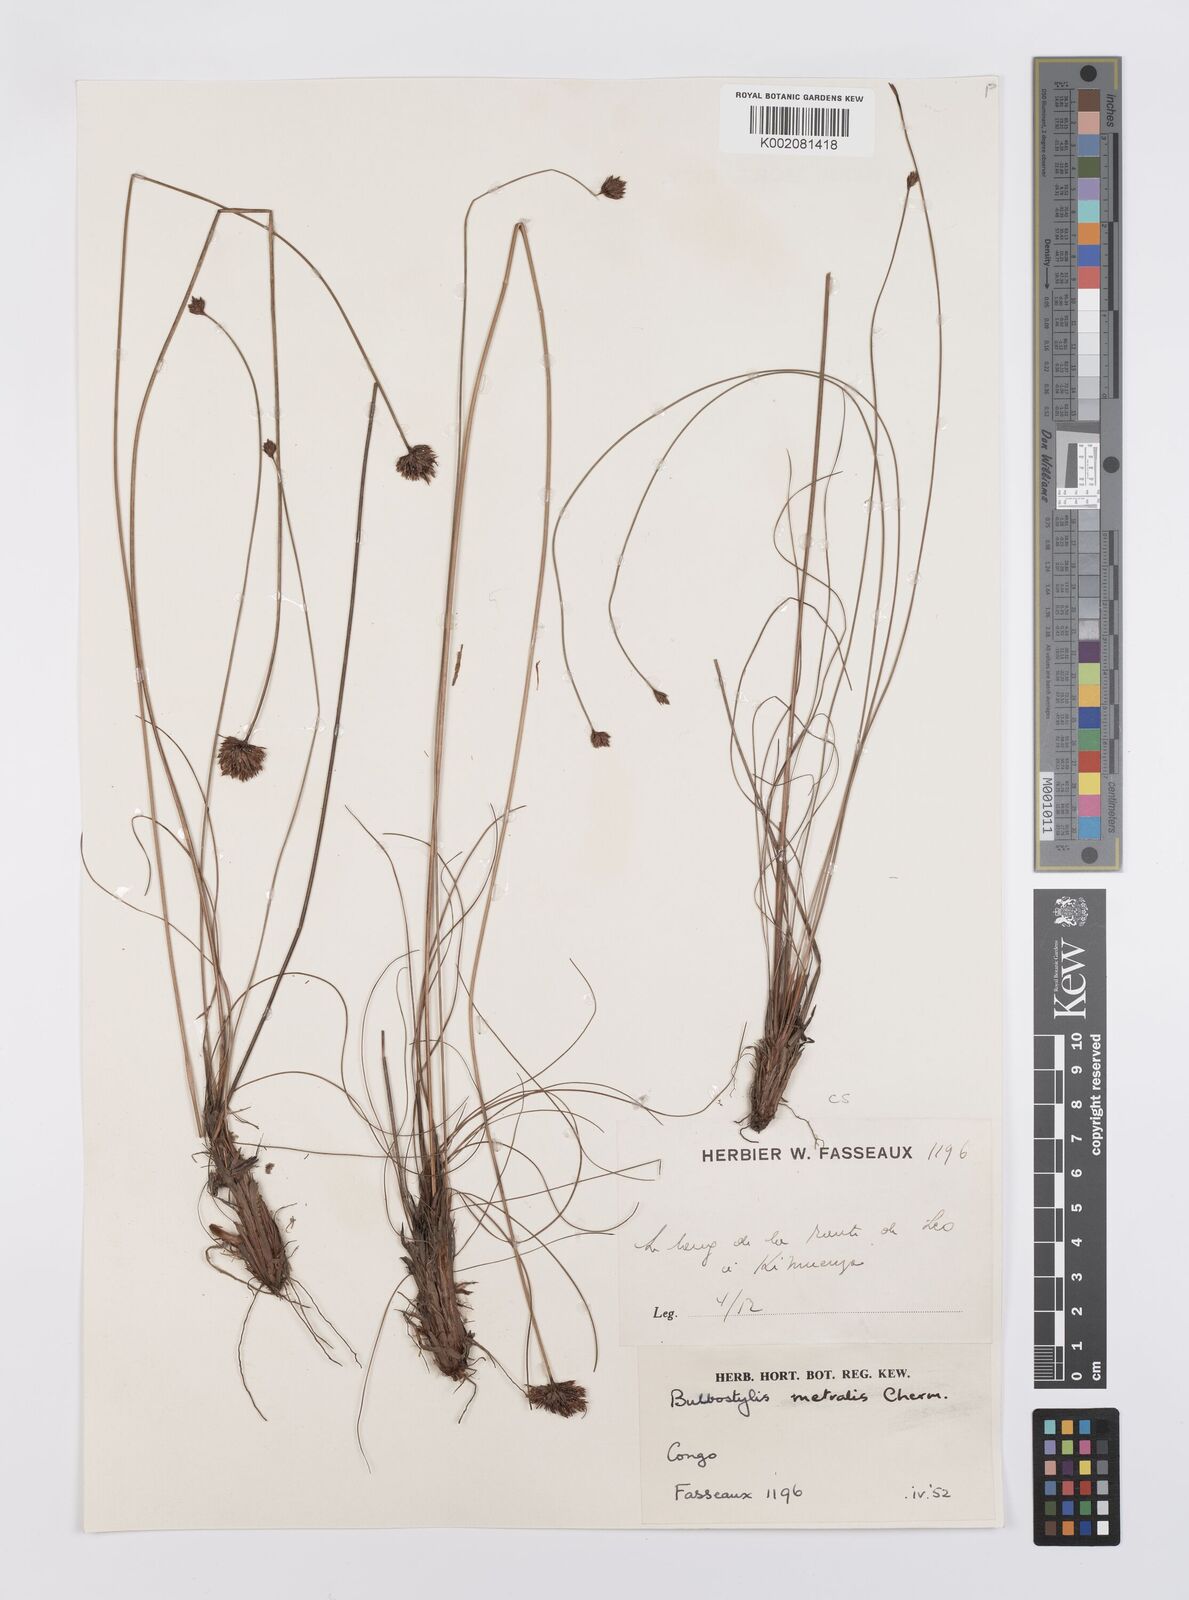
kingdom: Plantae
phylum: Tracheophyta
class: Liliopsida
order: Poales
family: Cyperaceae
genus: Bulbostylis
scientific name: Bulbostylis filamentosa
